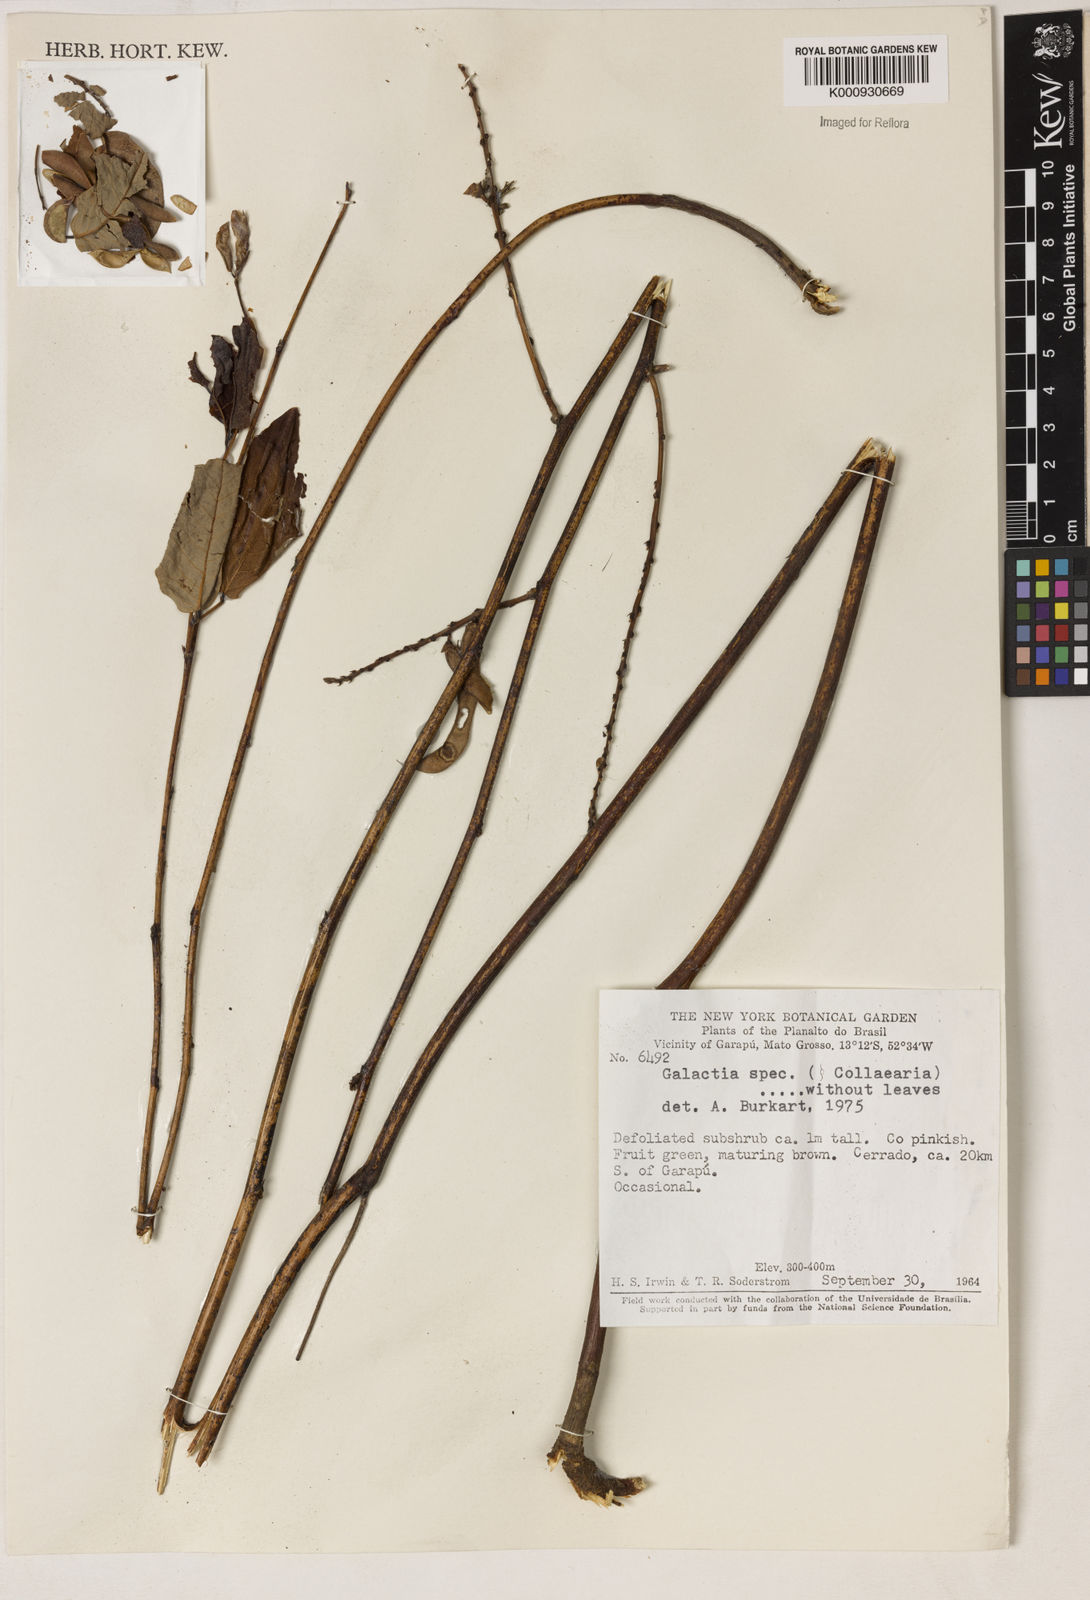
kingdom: Plantae
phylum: Tracheophyta
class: Magnoliopsida
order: Fabales
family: Fabaceae
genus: Galactia
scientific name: Galactia
